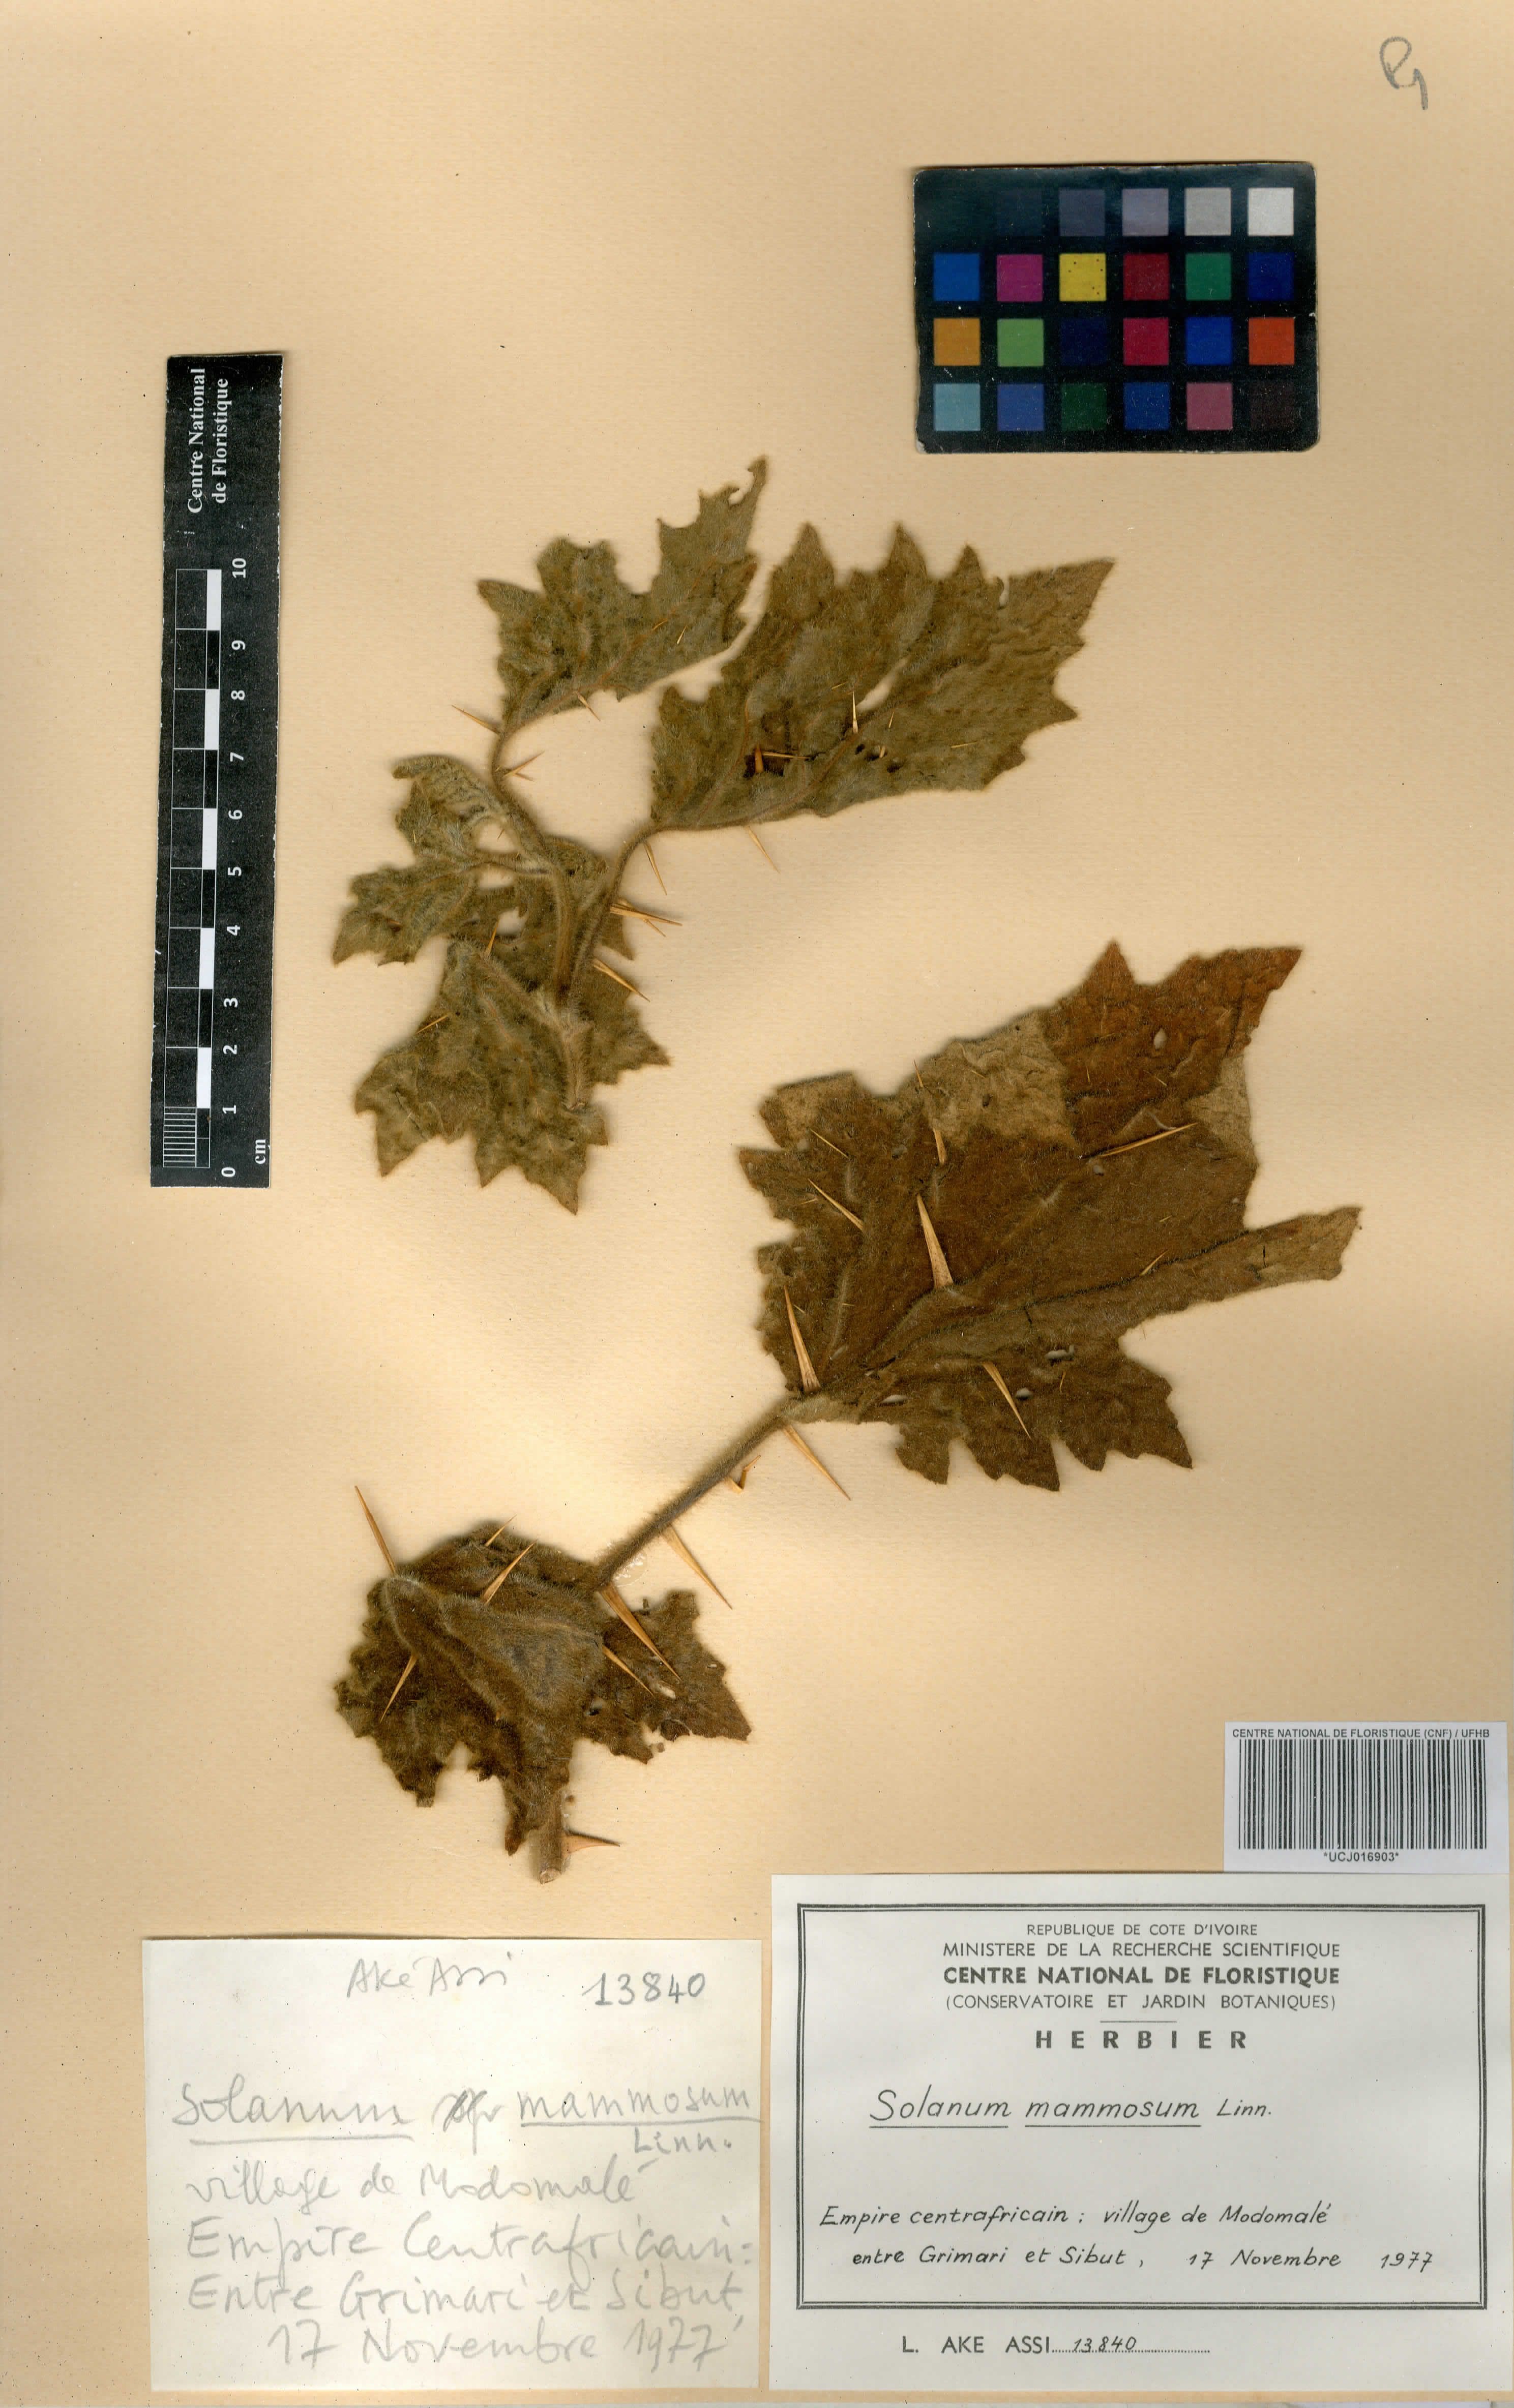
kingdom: Plantae
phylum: Tracheophyta
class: Magnoliopsida
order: Solanales
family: Solanaceae
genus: Solanum
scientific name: Solanum crinitum
